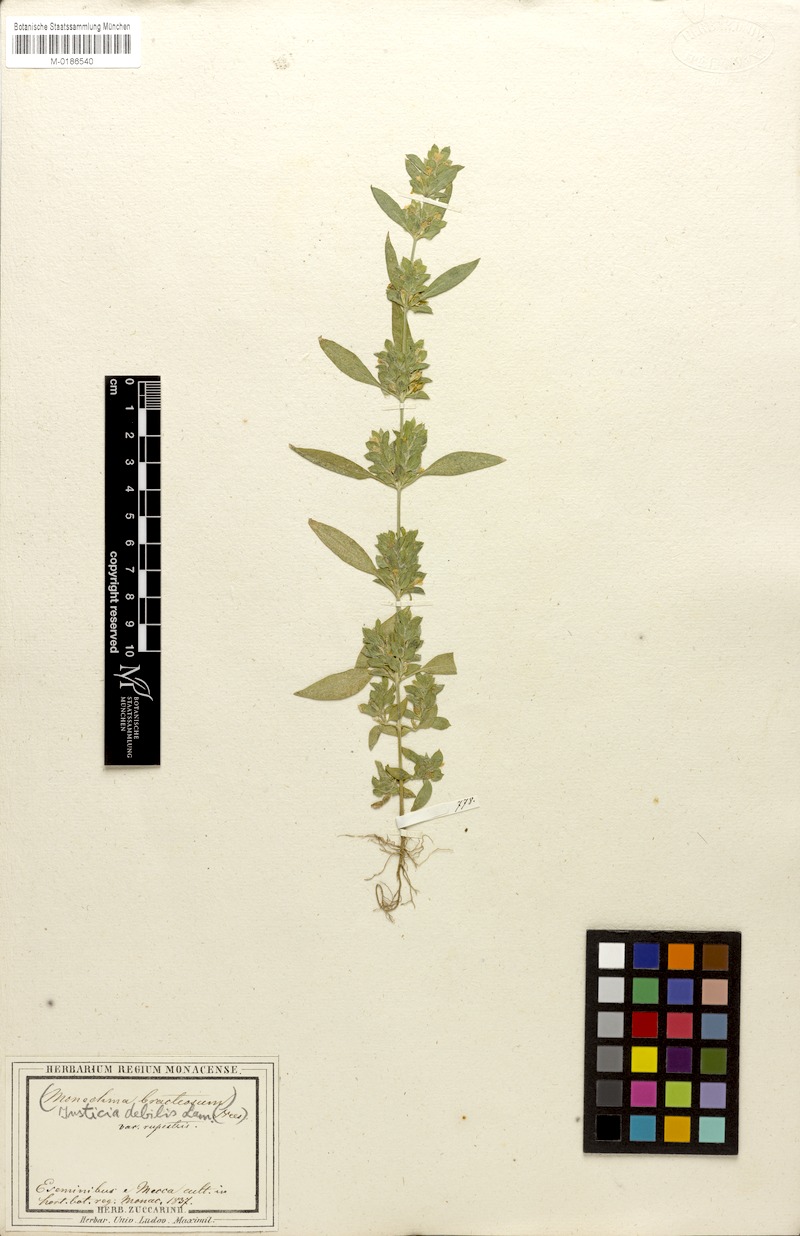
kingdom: Plantae
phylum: Tracheophyta
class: Magnoliopsida
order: Lamiales
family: Acanthaceae
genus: Monechma
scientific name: Monechma debile
